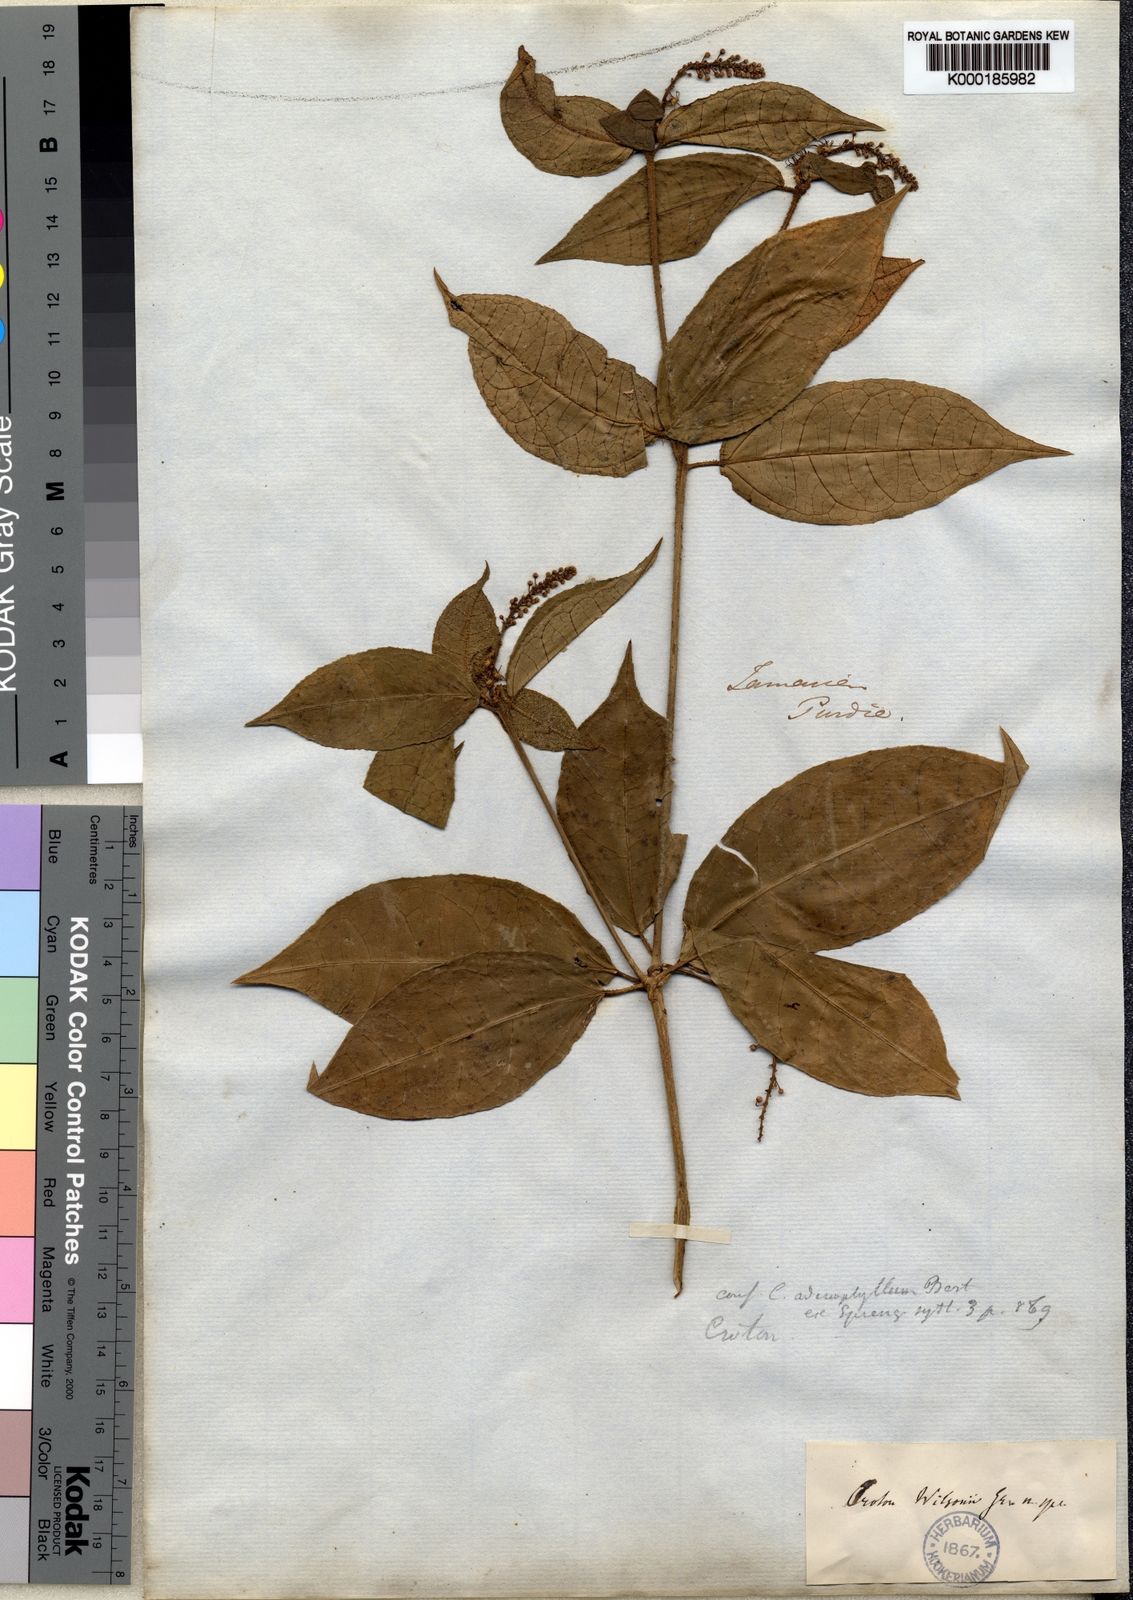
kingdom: Plantae
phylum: Tracheophyta
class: Magnoliopsida
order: Malpighiales
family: Euphorbiaceae
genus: Croton
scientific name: Croton lucidus
